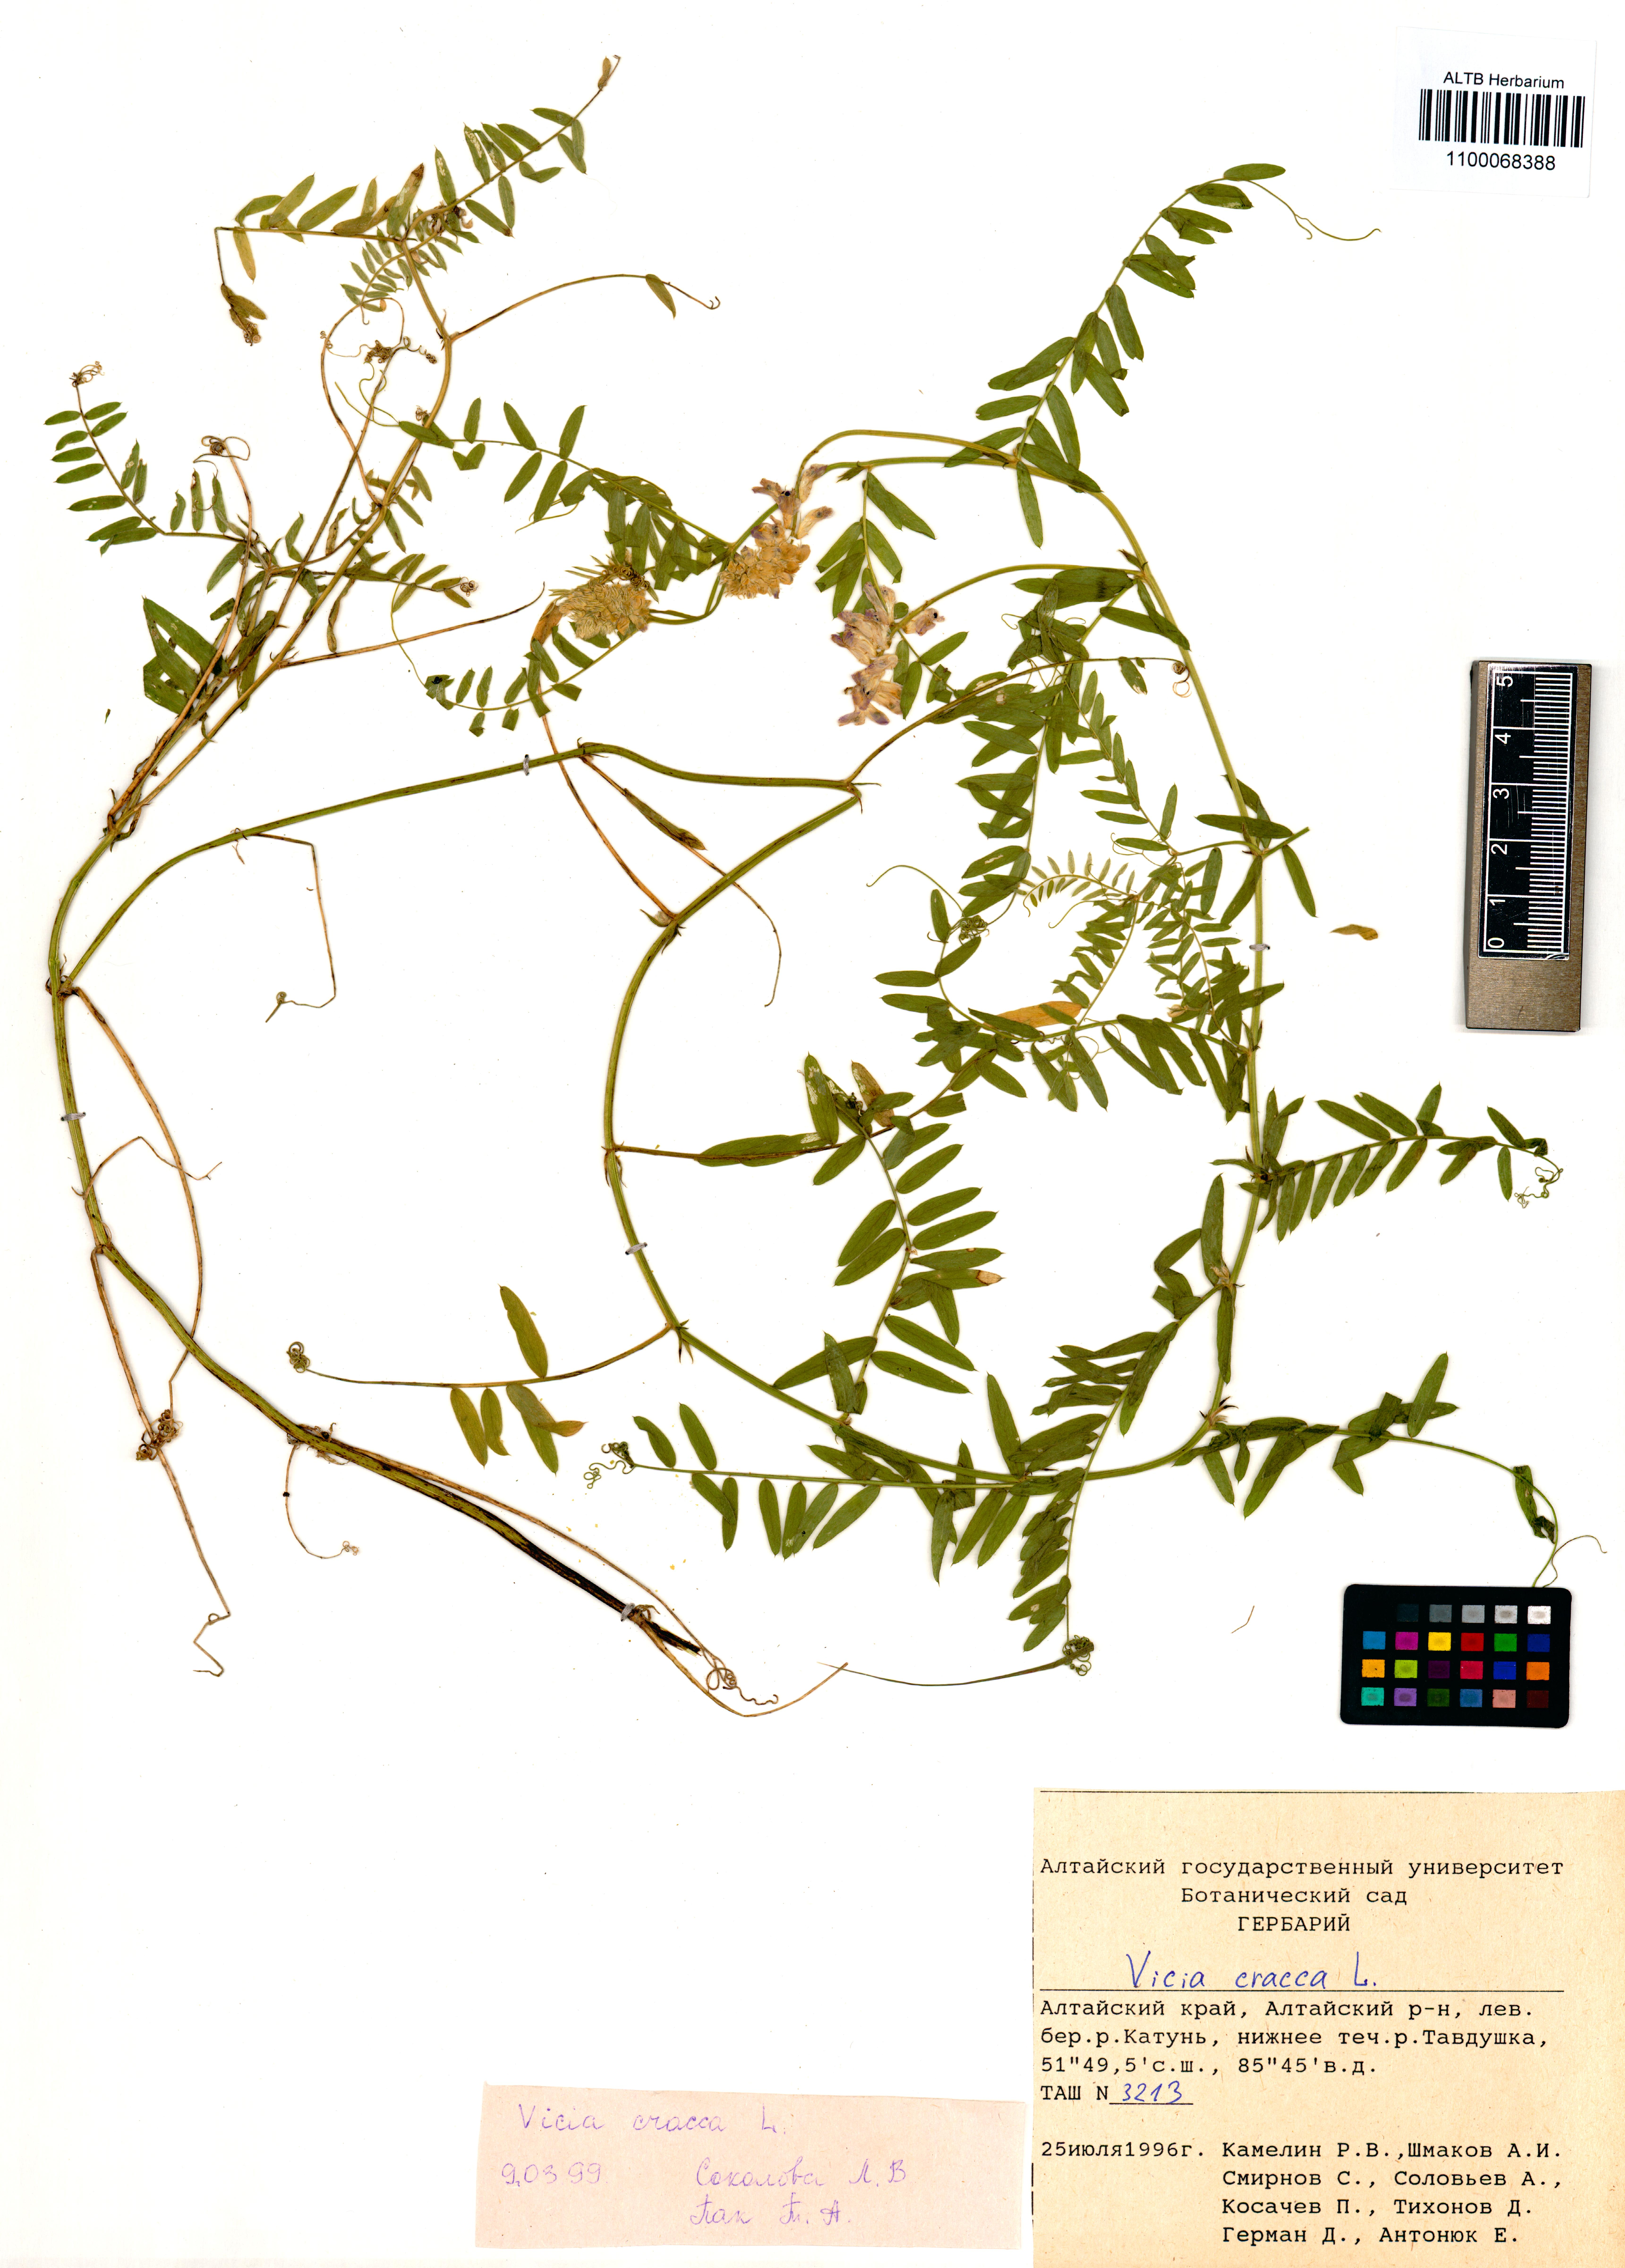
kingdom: Plantae
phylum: Tracheophyta
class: Magnoliopsida
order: Fabales
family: Fabaceae
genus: Vicia
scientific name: Vicia cracca
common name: Bird vetch
